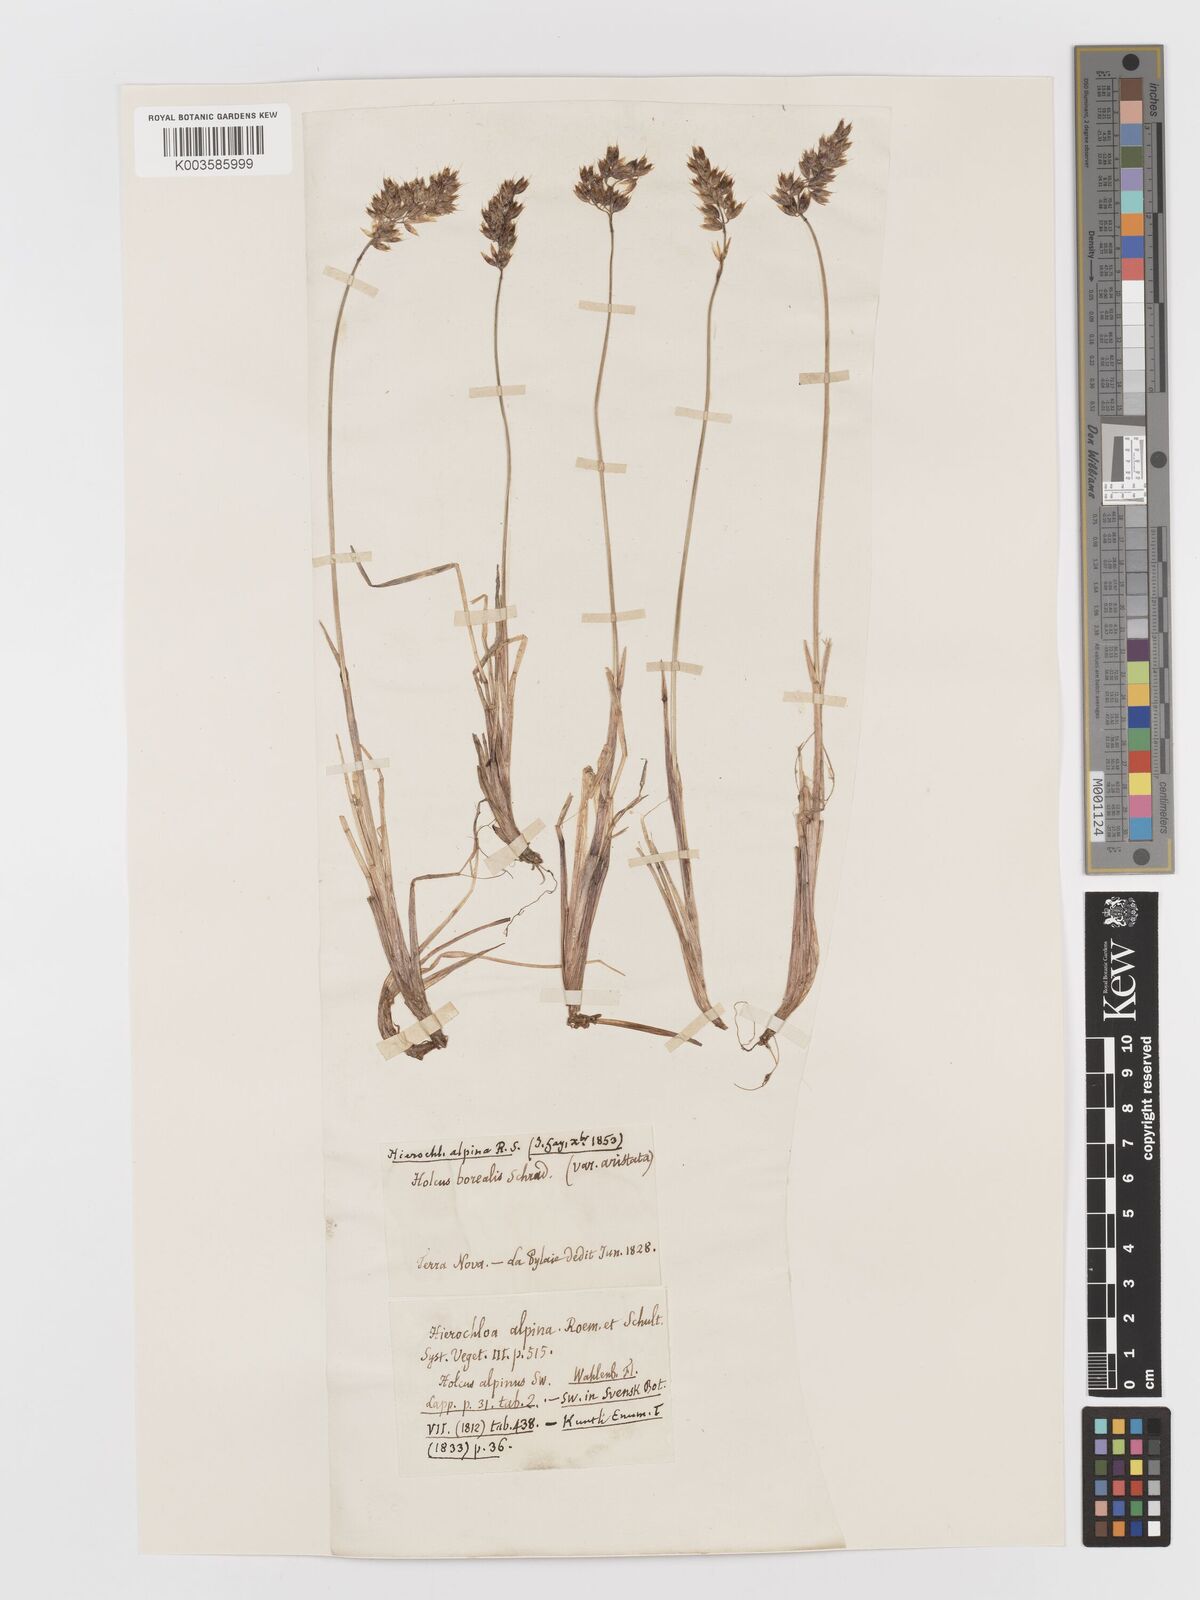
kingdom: Plantae
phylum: Tracheophyta
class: Liliopsida
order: Poales
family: Poaceae
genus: Anthoxanthum
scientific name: Anthoxanthum monticola
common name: Alpine sweetgrass
